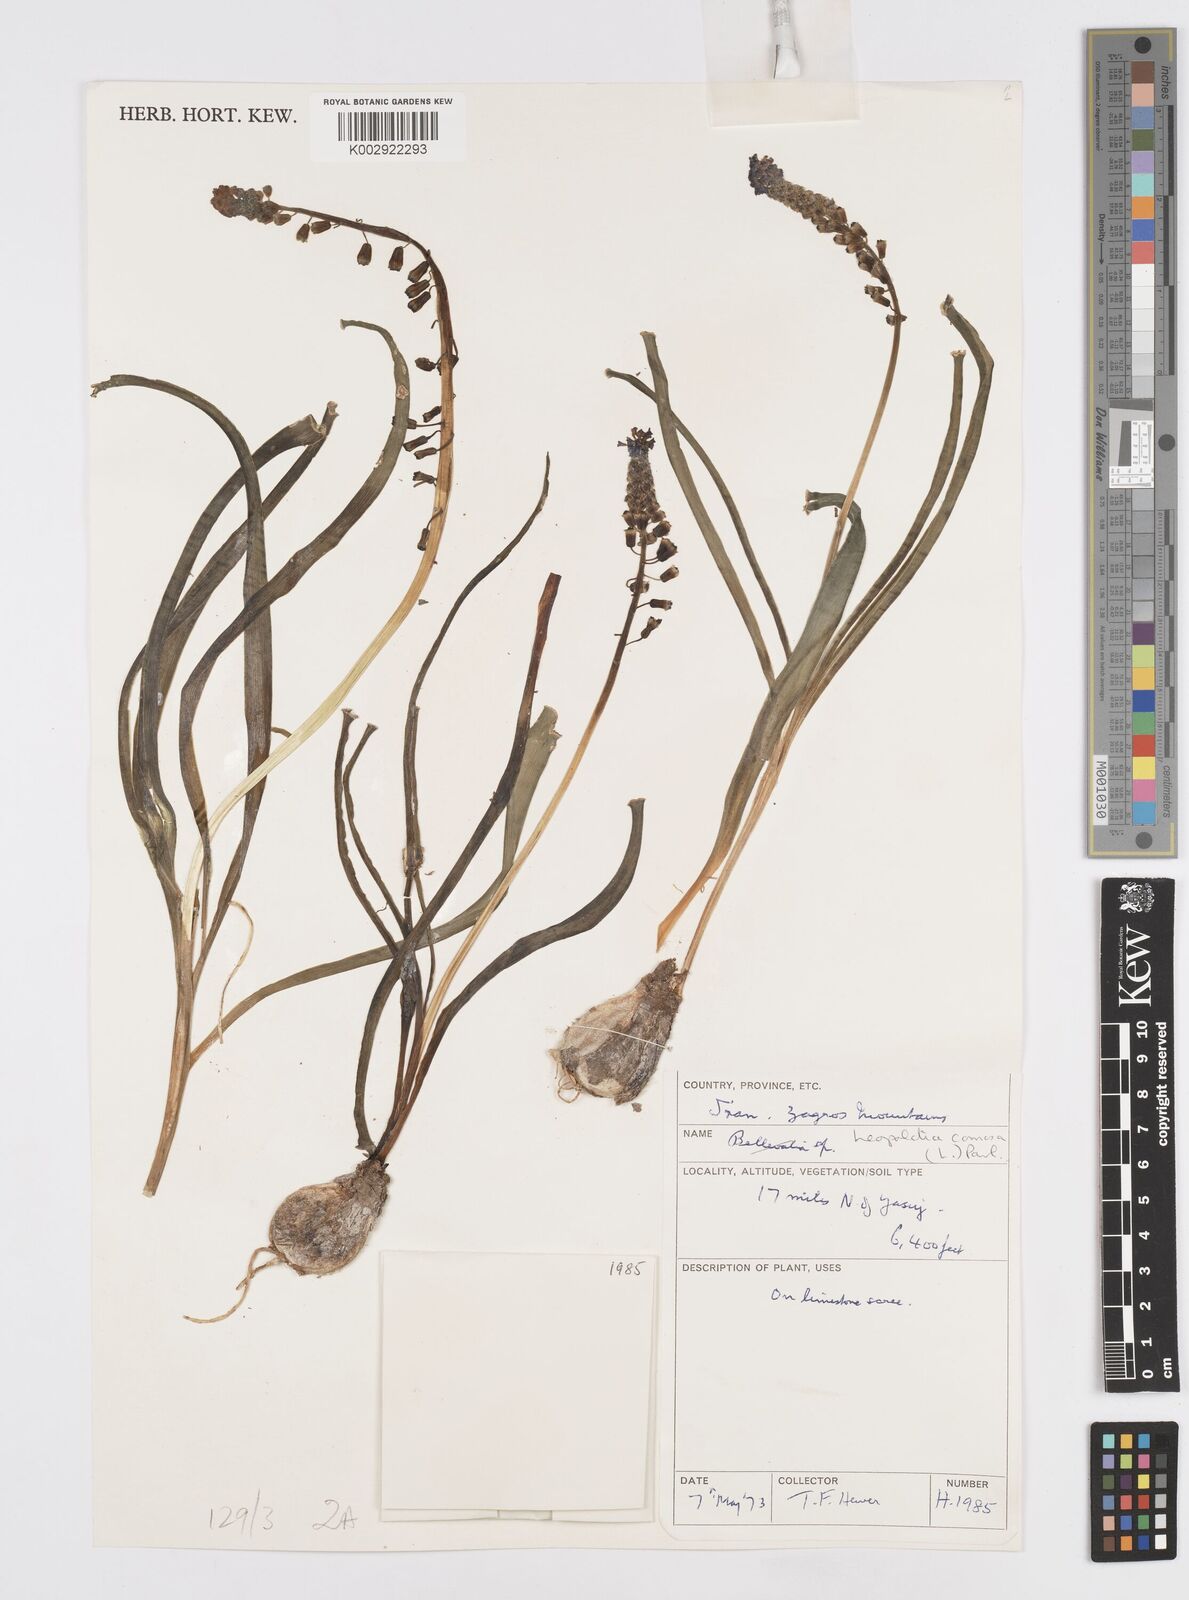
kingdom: Plantae
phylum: Tracheophyta
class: Liliopsida
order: Asparagales
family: Asparagaceae
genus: Muscari
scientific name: Muscari comosum
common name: Tassel hyacinth
